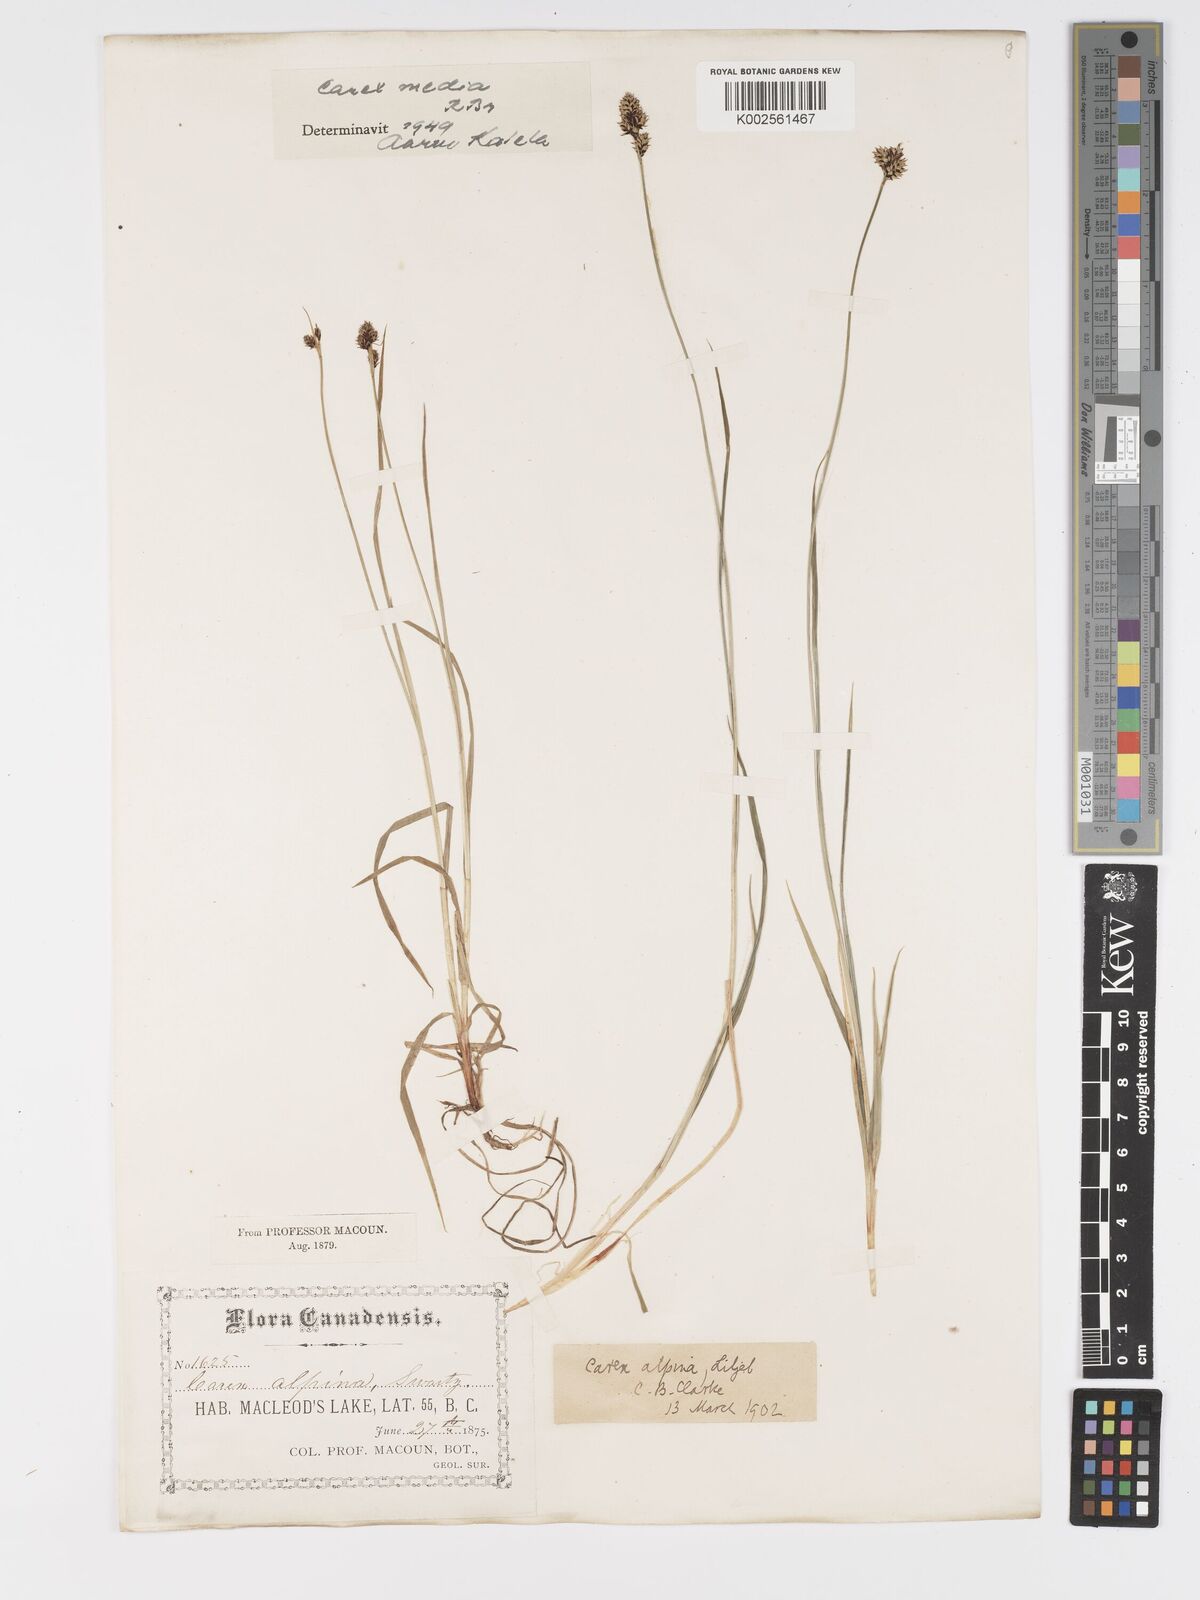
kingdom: Plantae
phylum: Tracheophyta
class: Liliopsida
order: Poales
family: Cyperaceae
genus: Carex
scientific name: Carex media
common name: Alpine sedge
